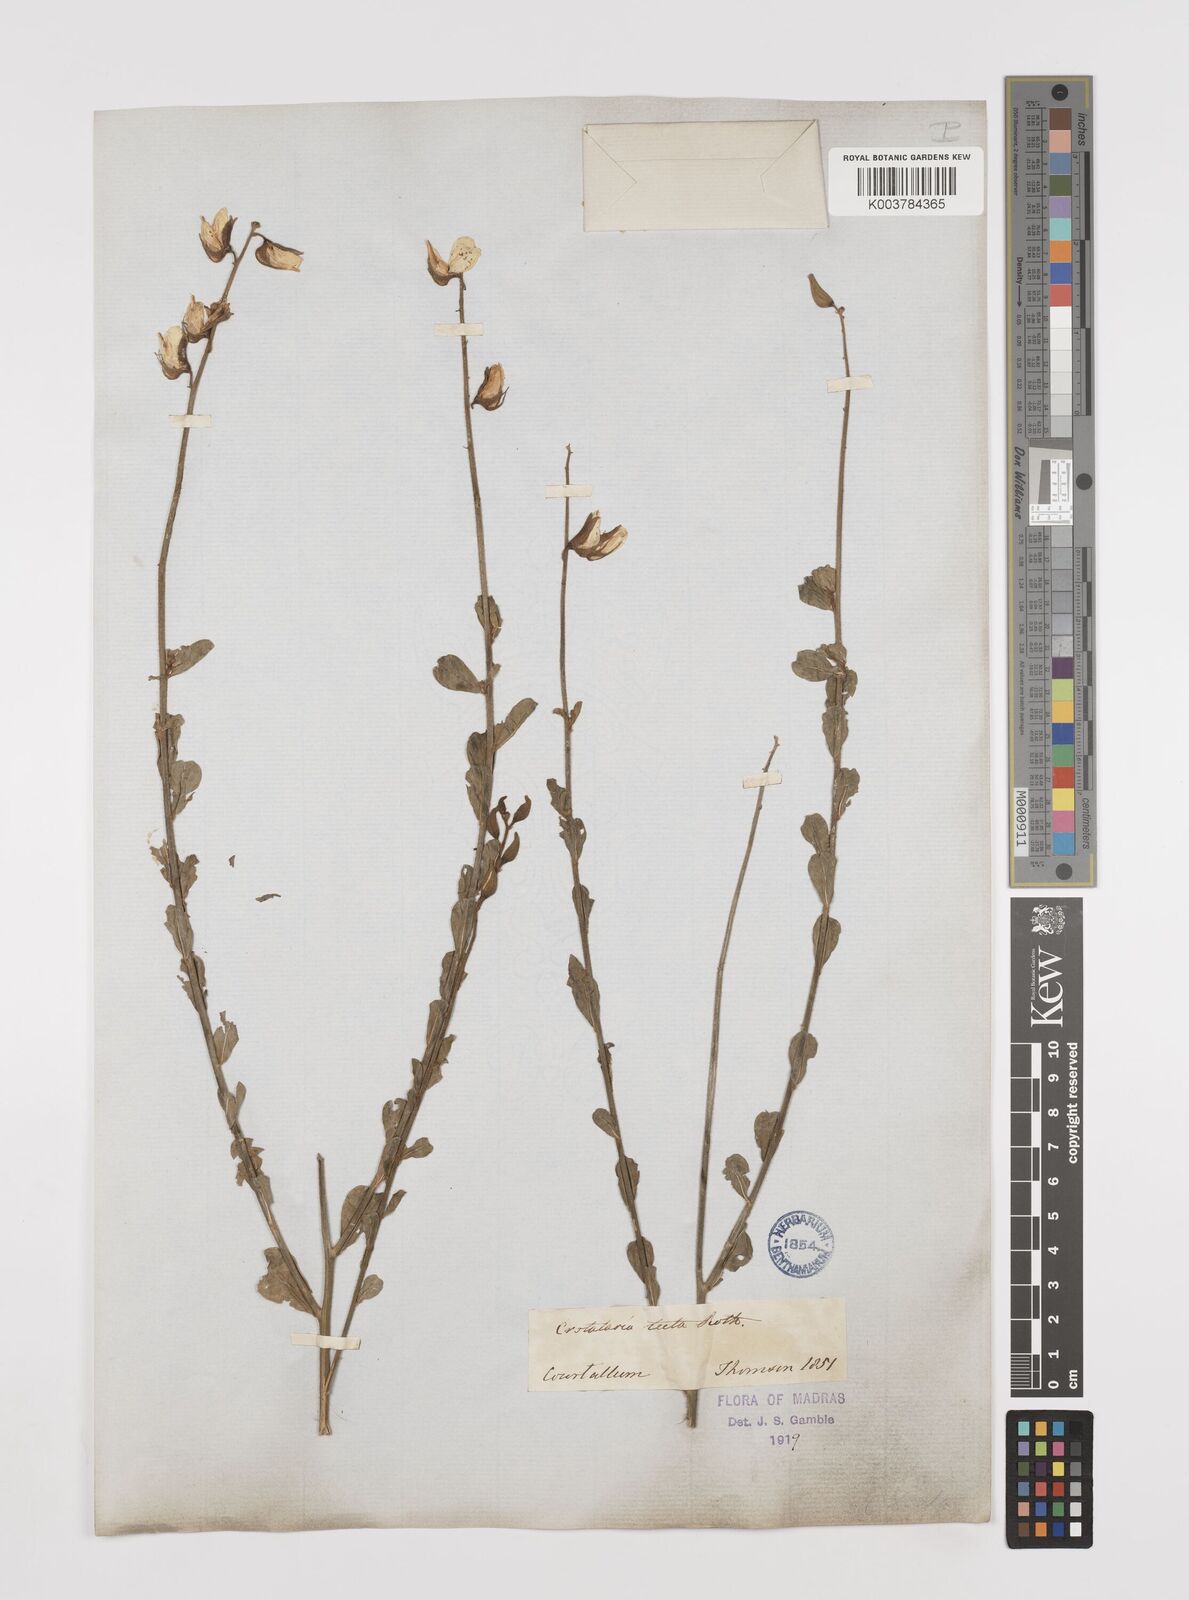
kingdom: Plantae
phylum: Tracheophyta
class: Magnoliopsida
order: Fabales
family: Fabaceae
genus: Crotalaria
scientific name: Crotalaria linifolia
